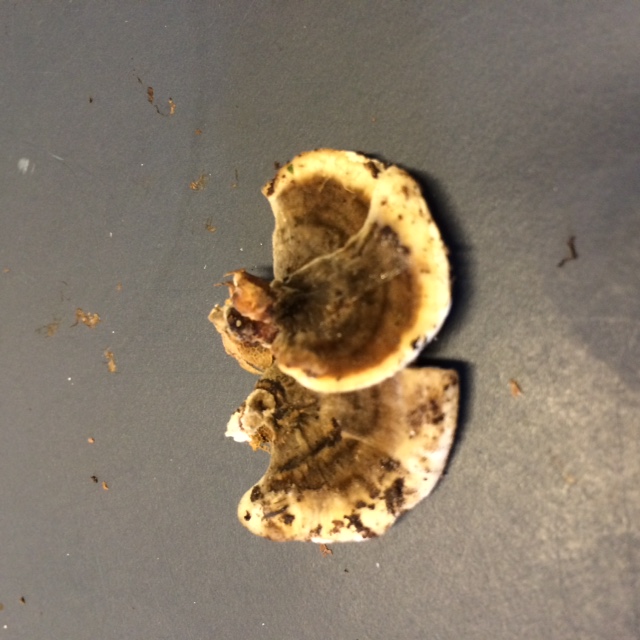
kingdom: Fungi
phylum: Basidiomycota
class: Agaricomycetes
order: Polyporales
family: Polyporaceae
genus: Trametes
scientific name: Trametes versicolor
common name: broget læderporesvamp
